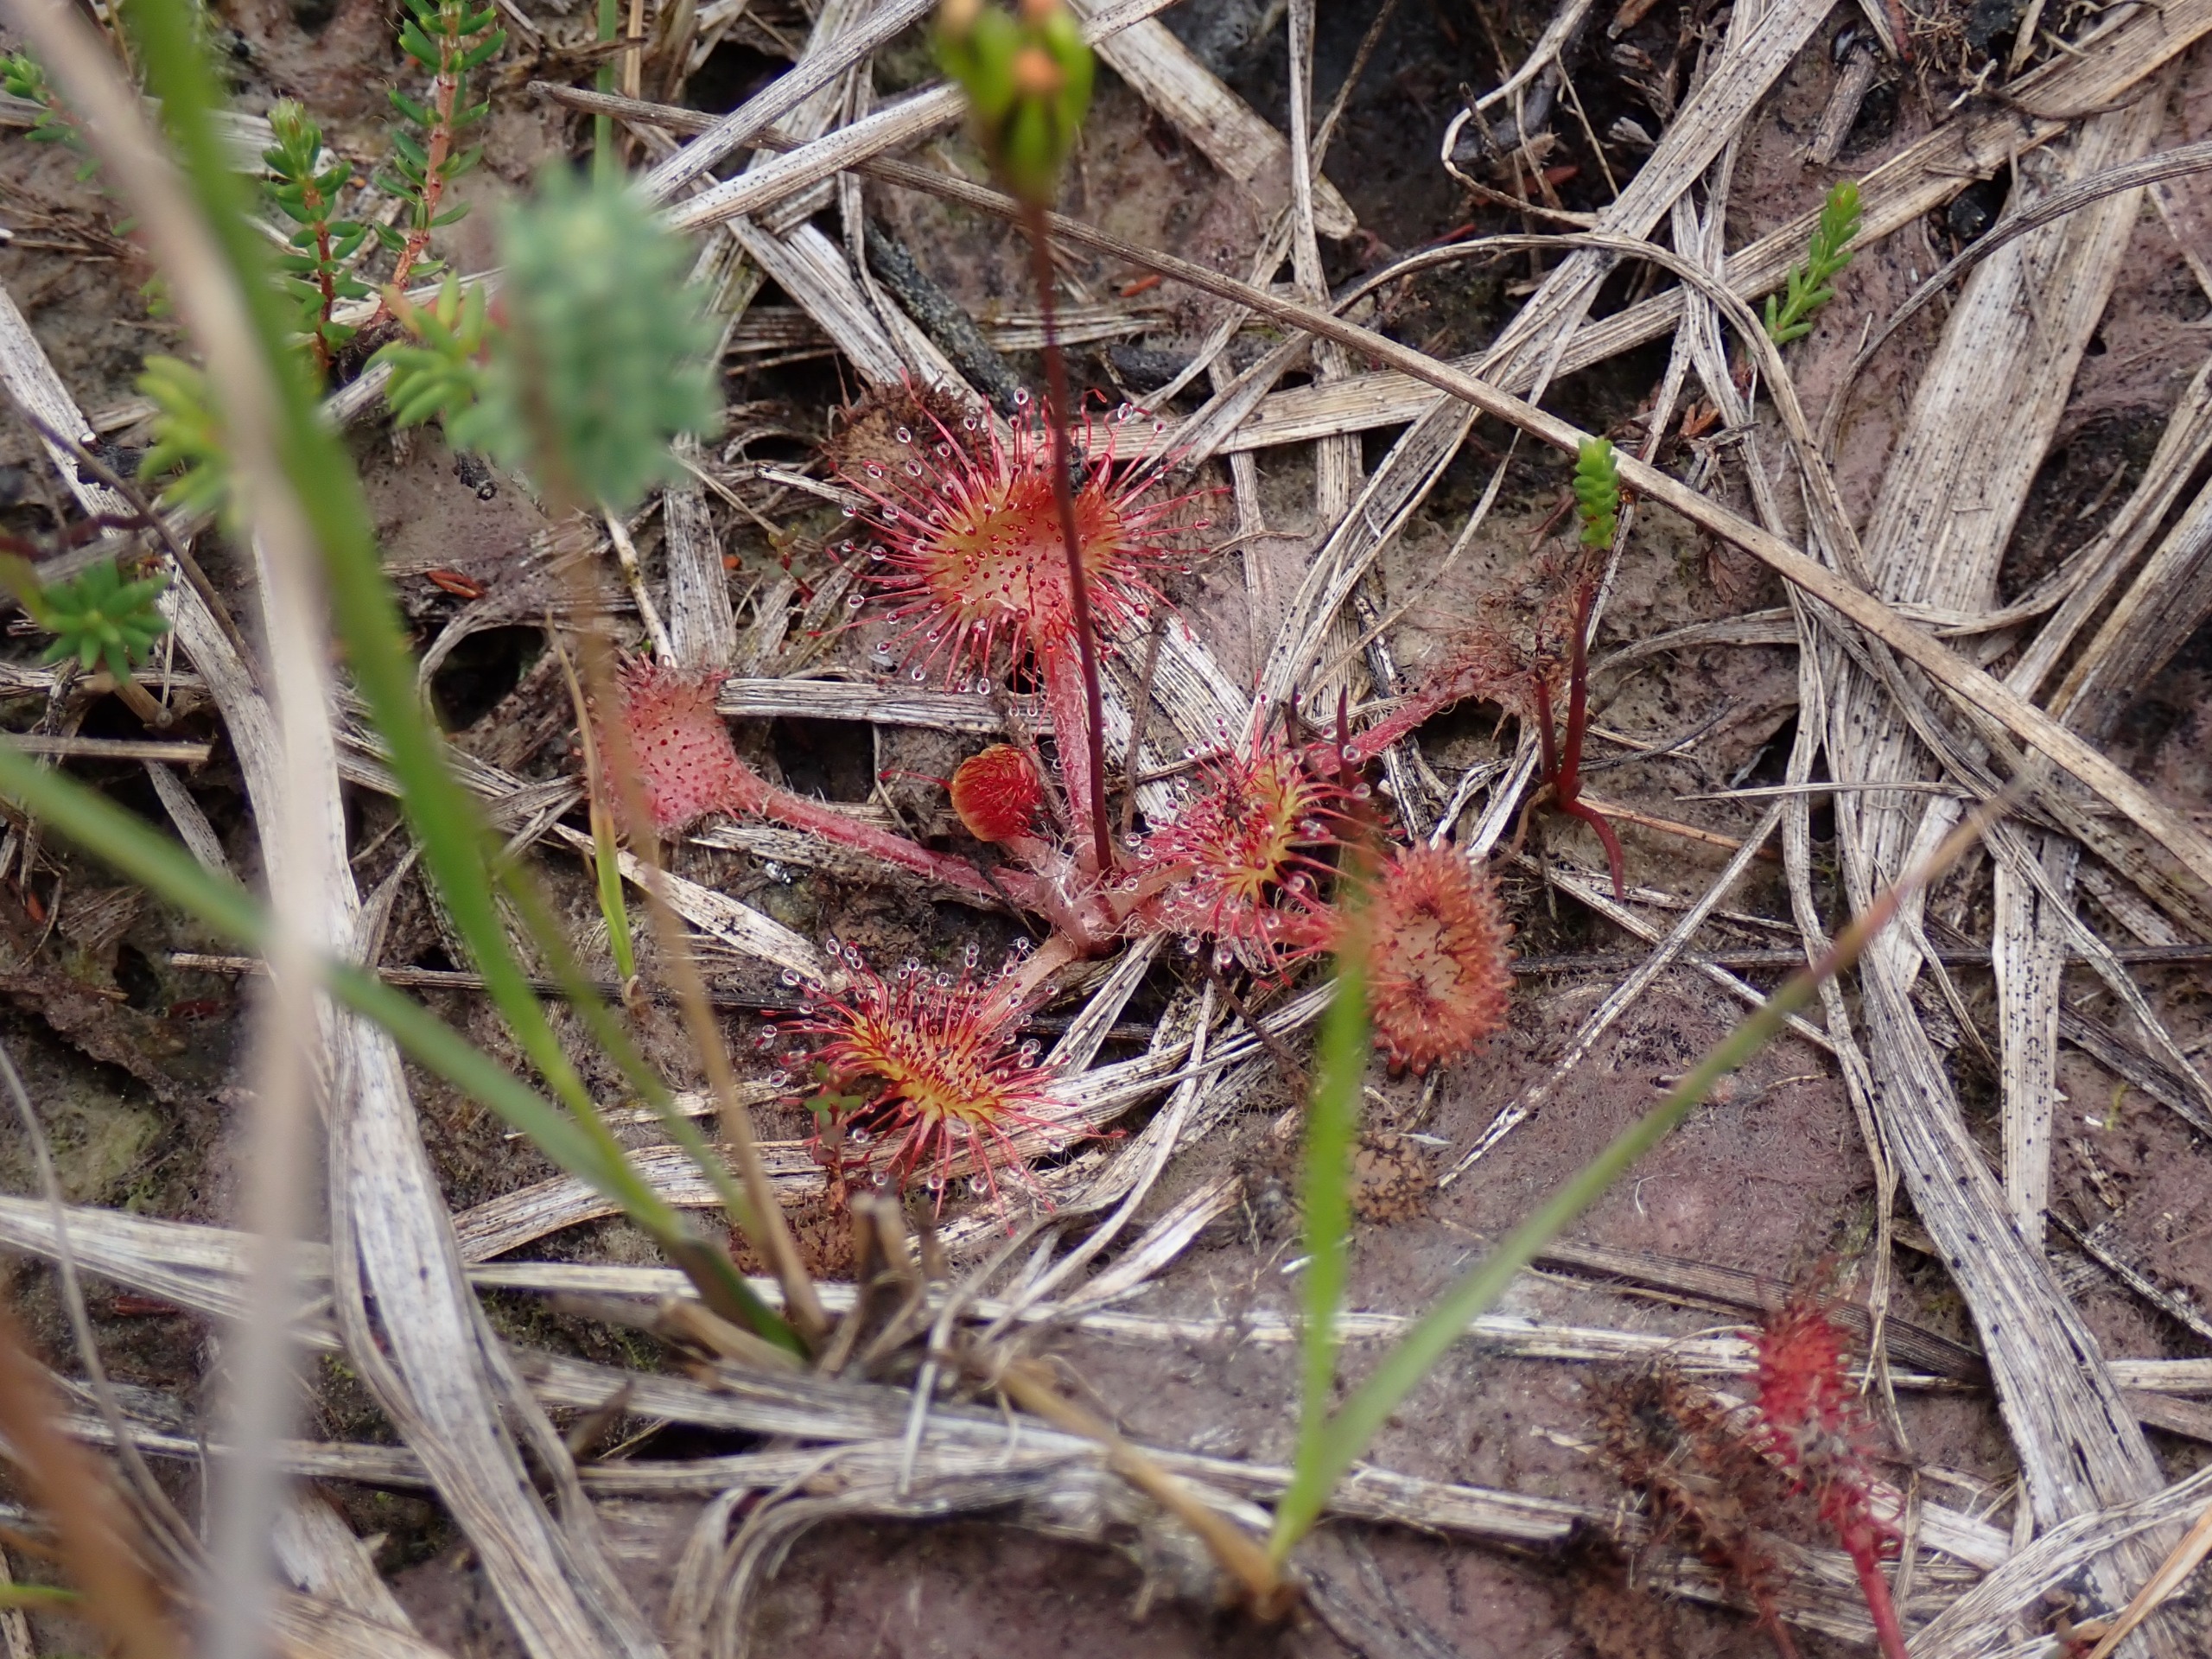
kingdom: Plantae
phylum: Tracheophyta
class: Magnoliopsida
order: Caryophyllales
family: Droseraceae
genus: Drosera
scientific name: Drosera rotundifolia
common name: Rundbladet soldug
